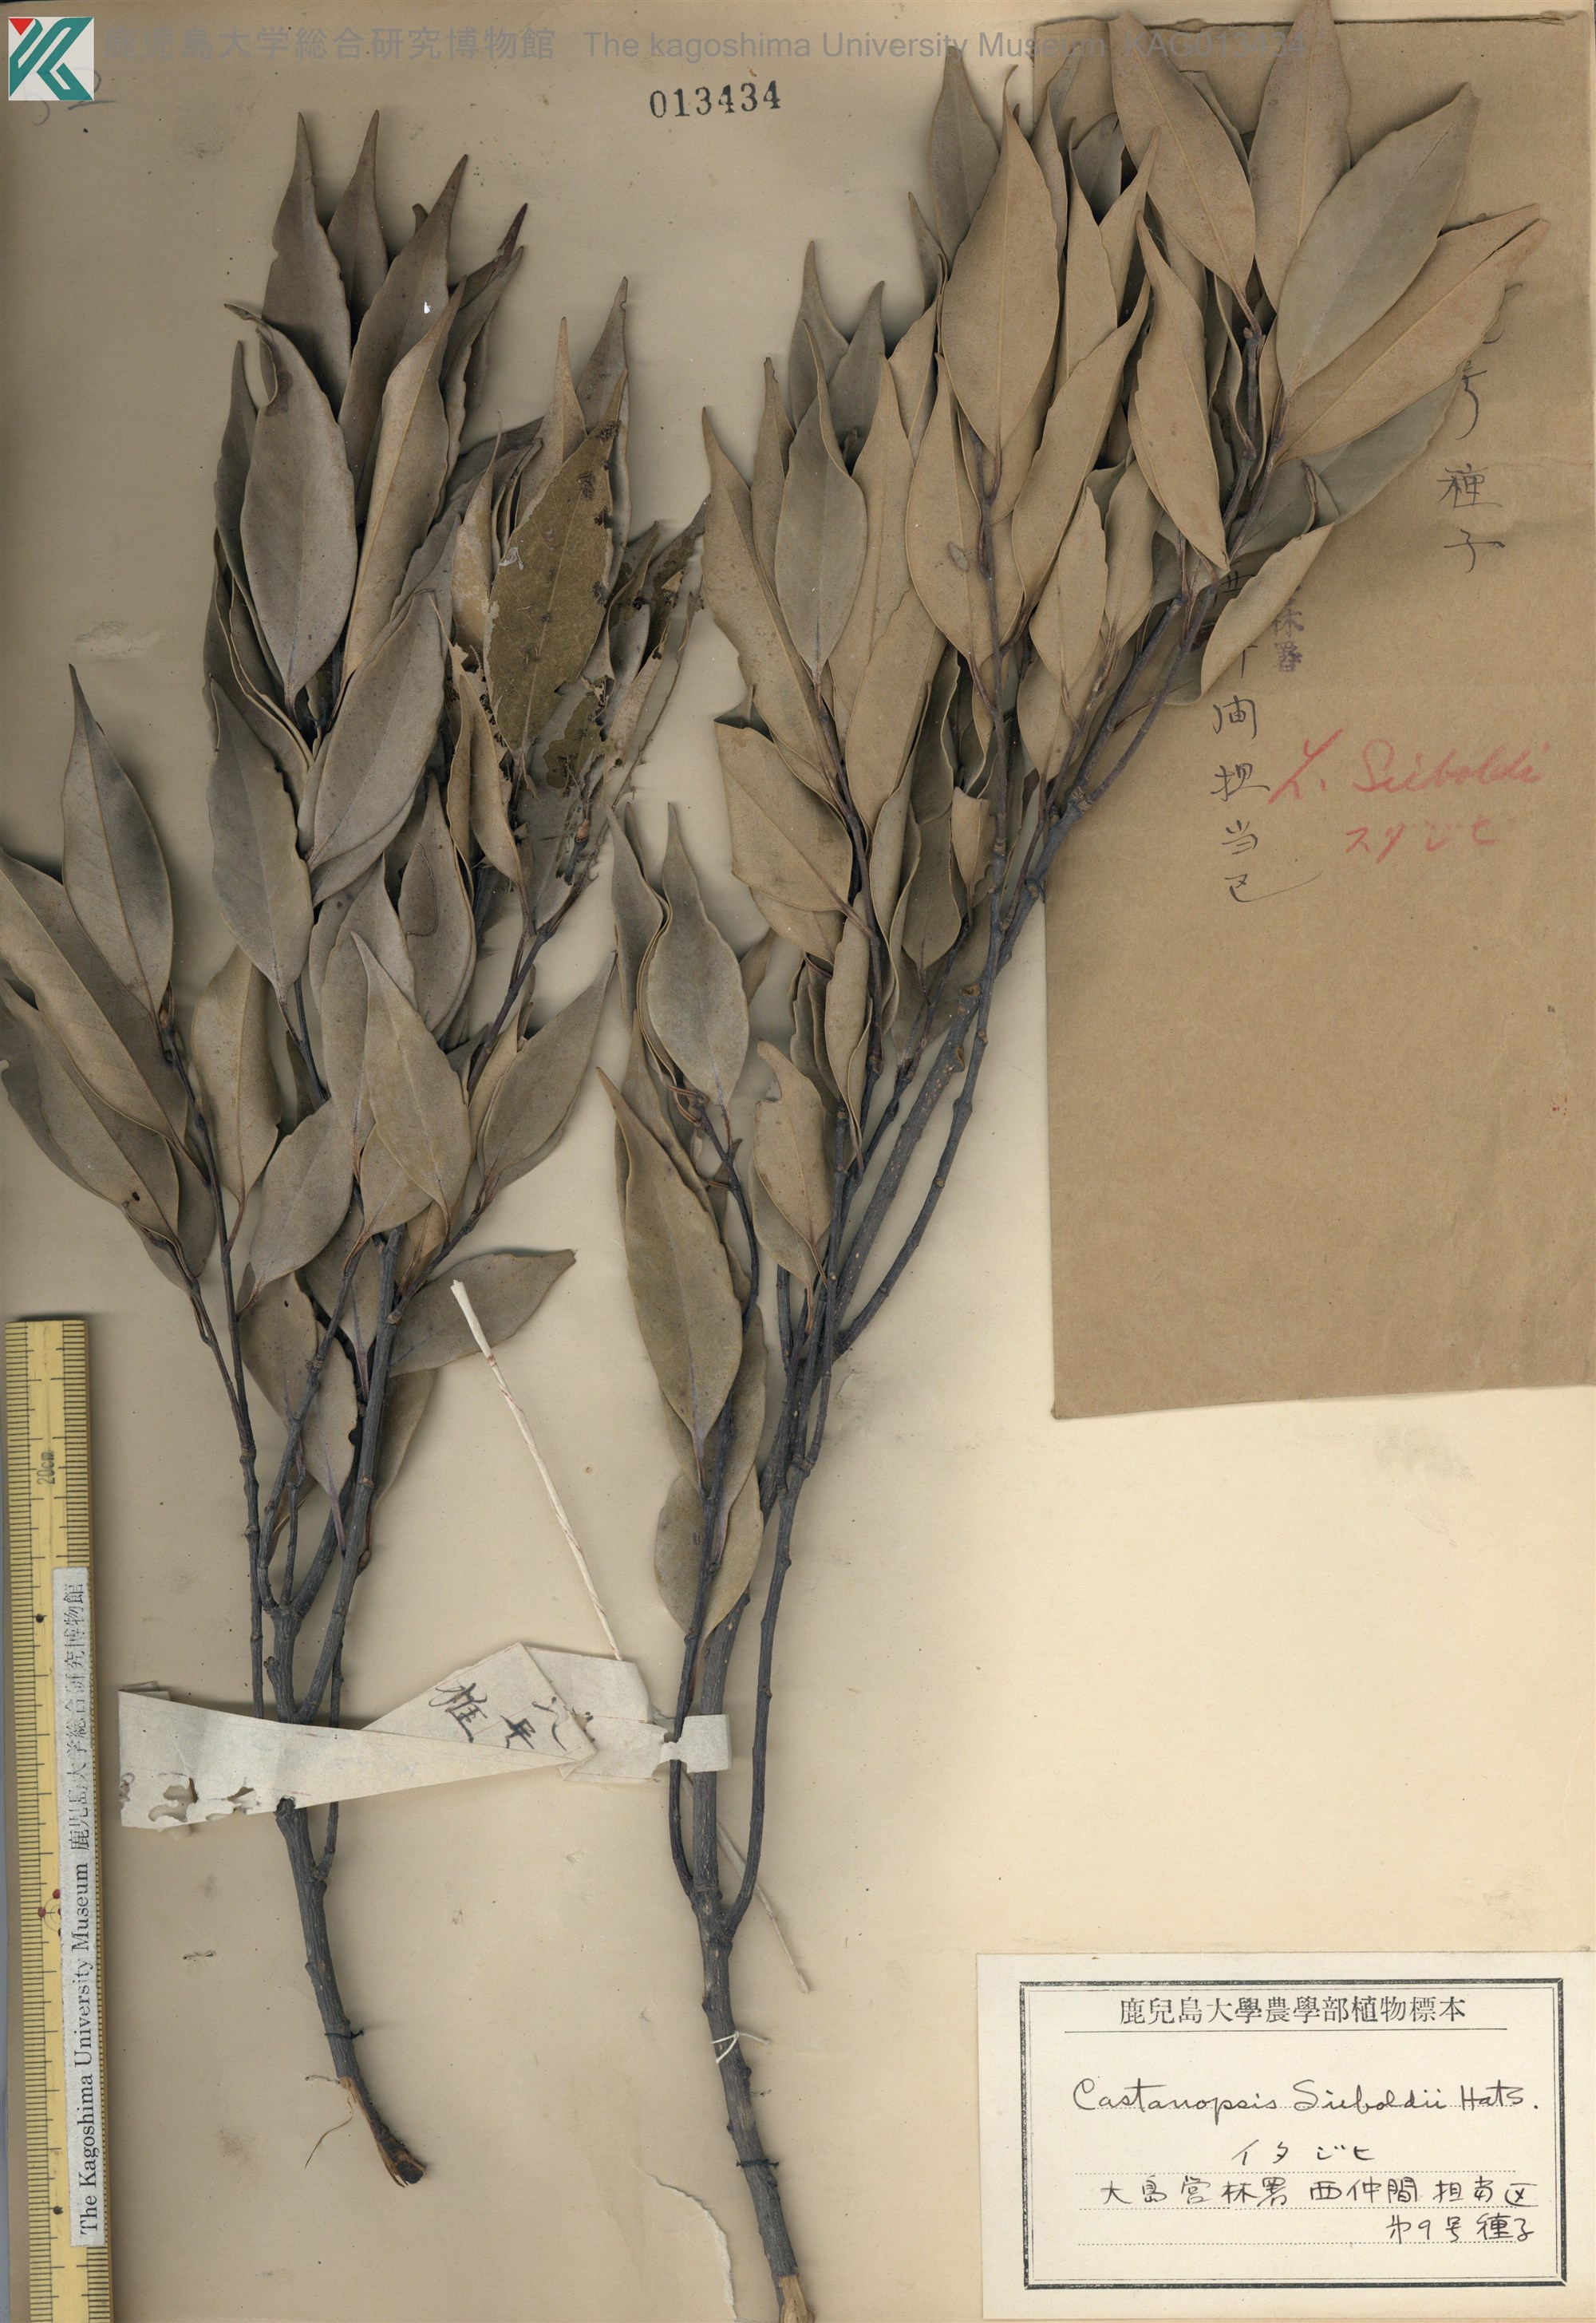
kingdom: Plantae
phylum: Tracheophyta
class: Magnoliopsida
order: Fagales
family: Fagaceae
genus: Castanopsis
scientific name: Castanopsis sieboldii
